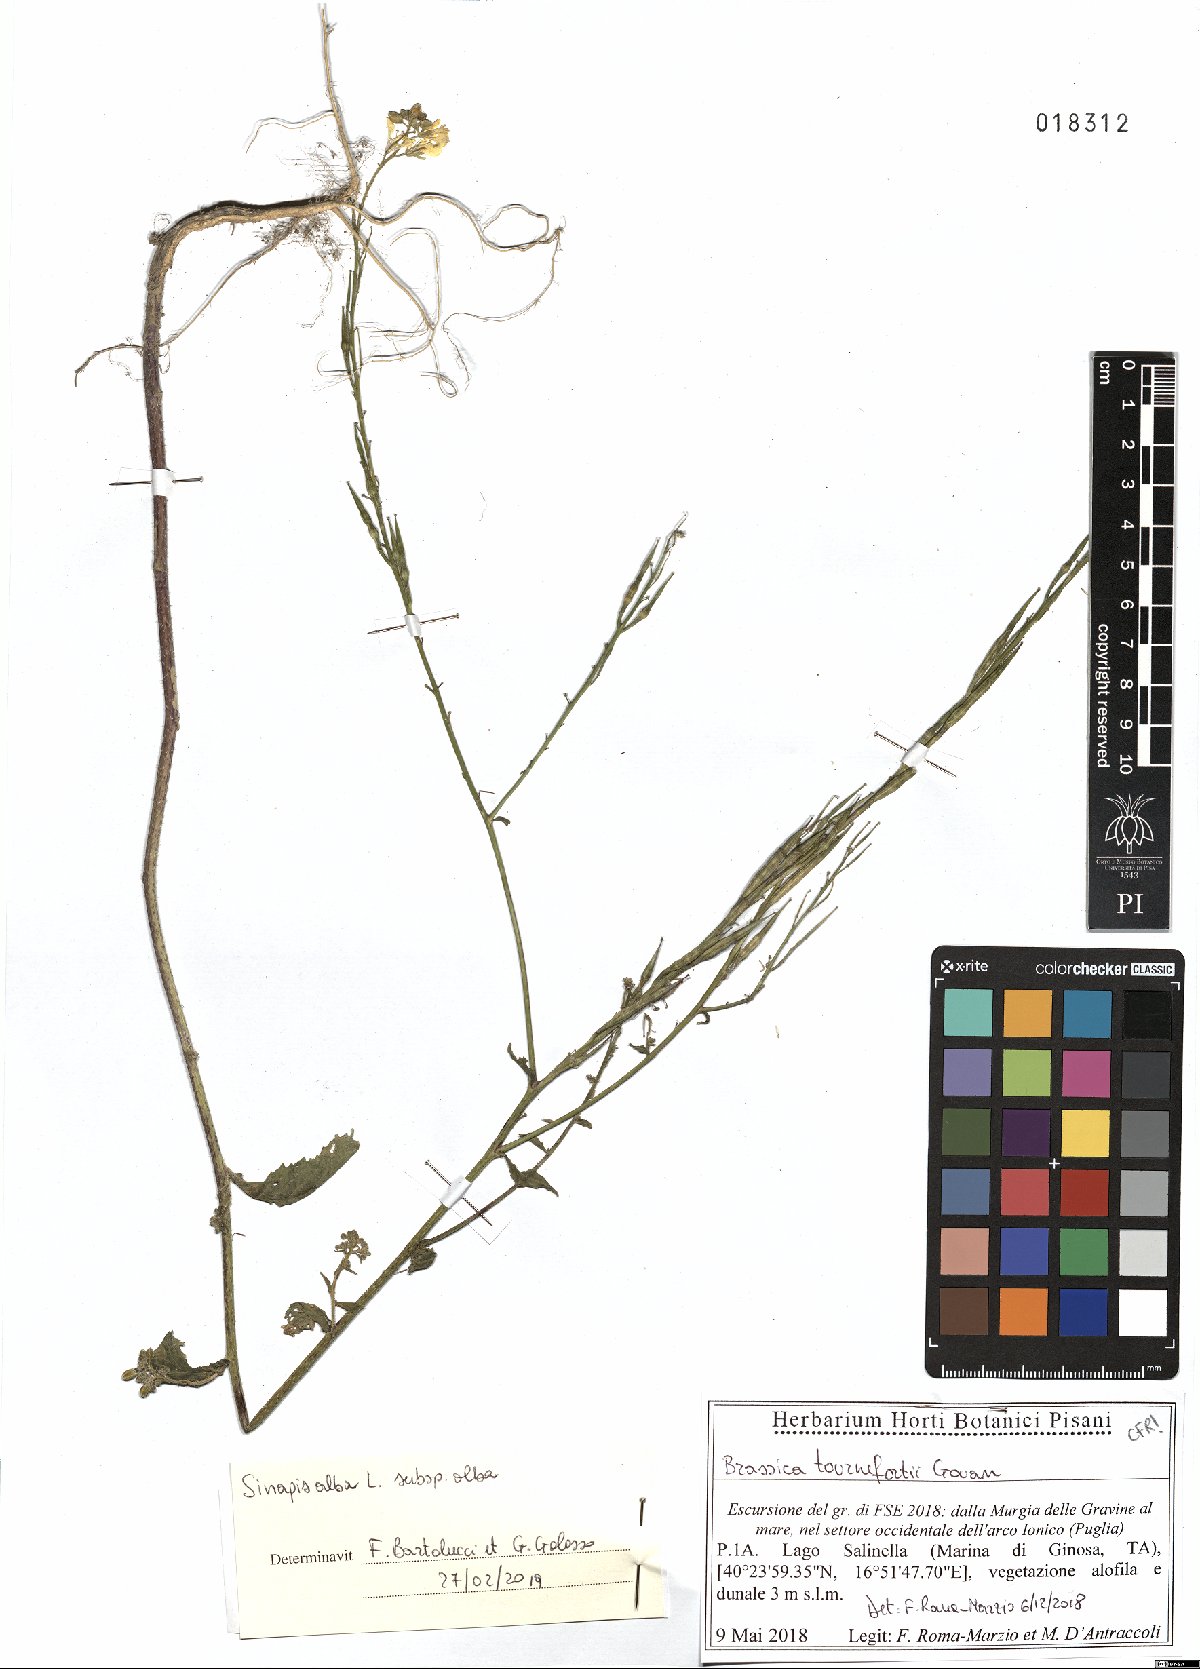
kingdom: Plantae
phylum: Tracheophyta
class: Magnoliopsida
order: Brassicales
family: Brassicaceae
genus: Sinapis
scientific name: Sinapis alba
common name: White mustard
